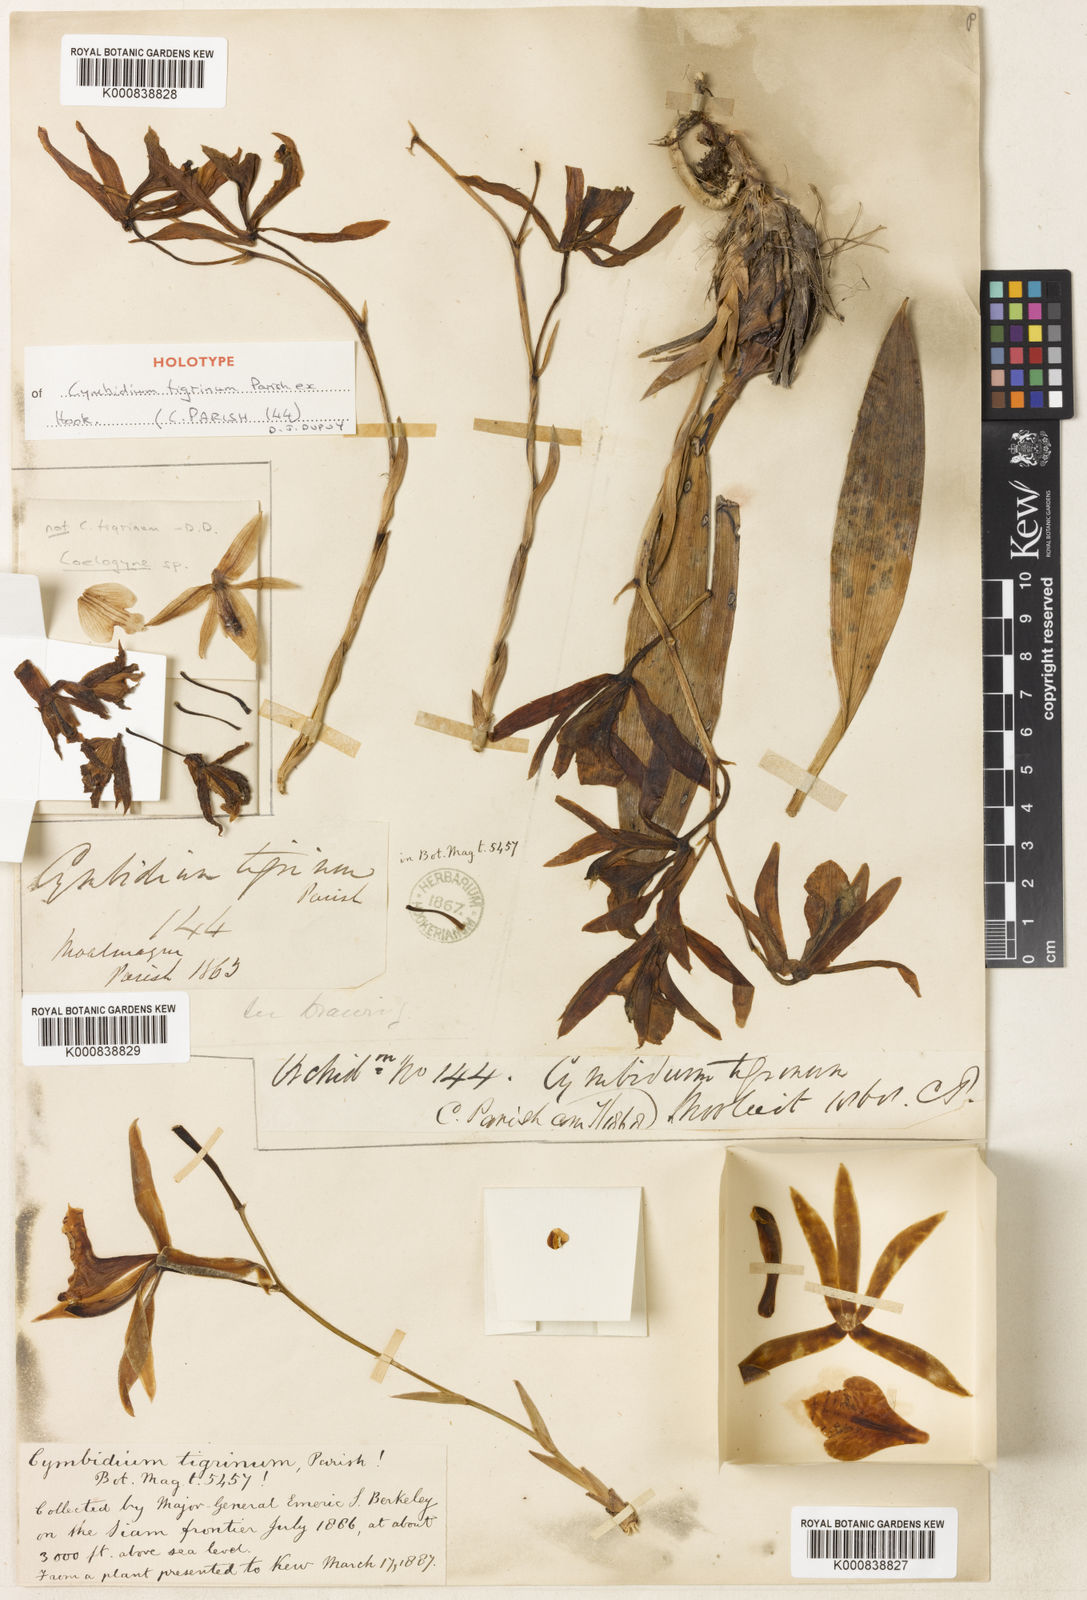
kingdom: Plantae
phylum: Tracheophyta
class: Liliopsida
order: Asparagales
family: Orchidaceae
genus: Cymbidium
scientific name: Cymbidium tigrinum
